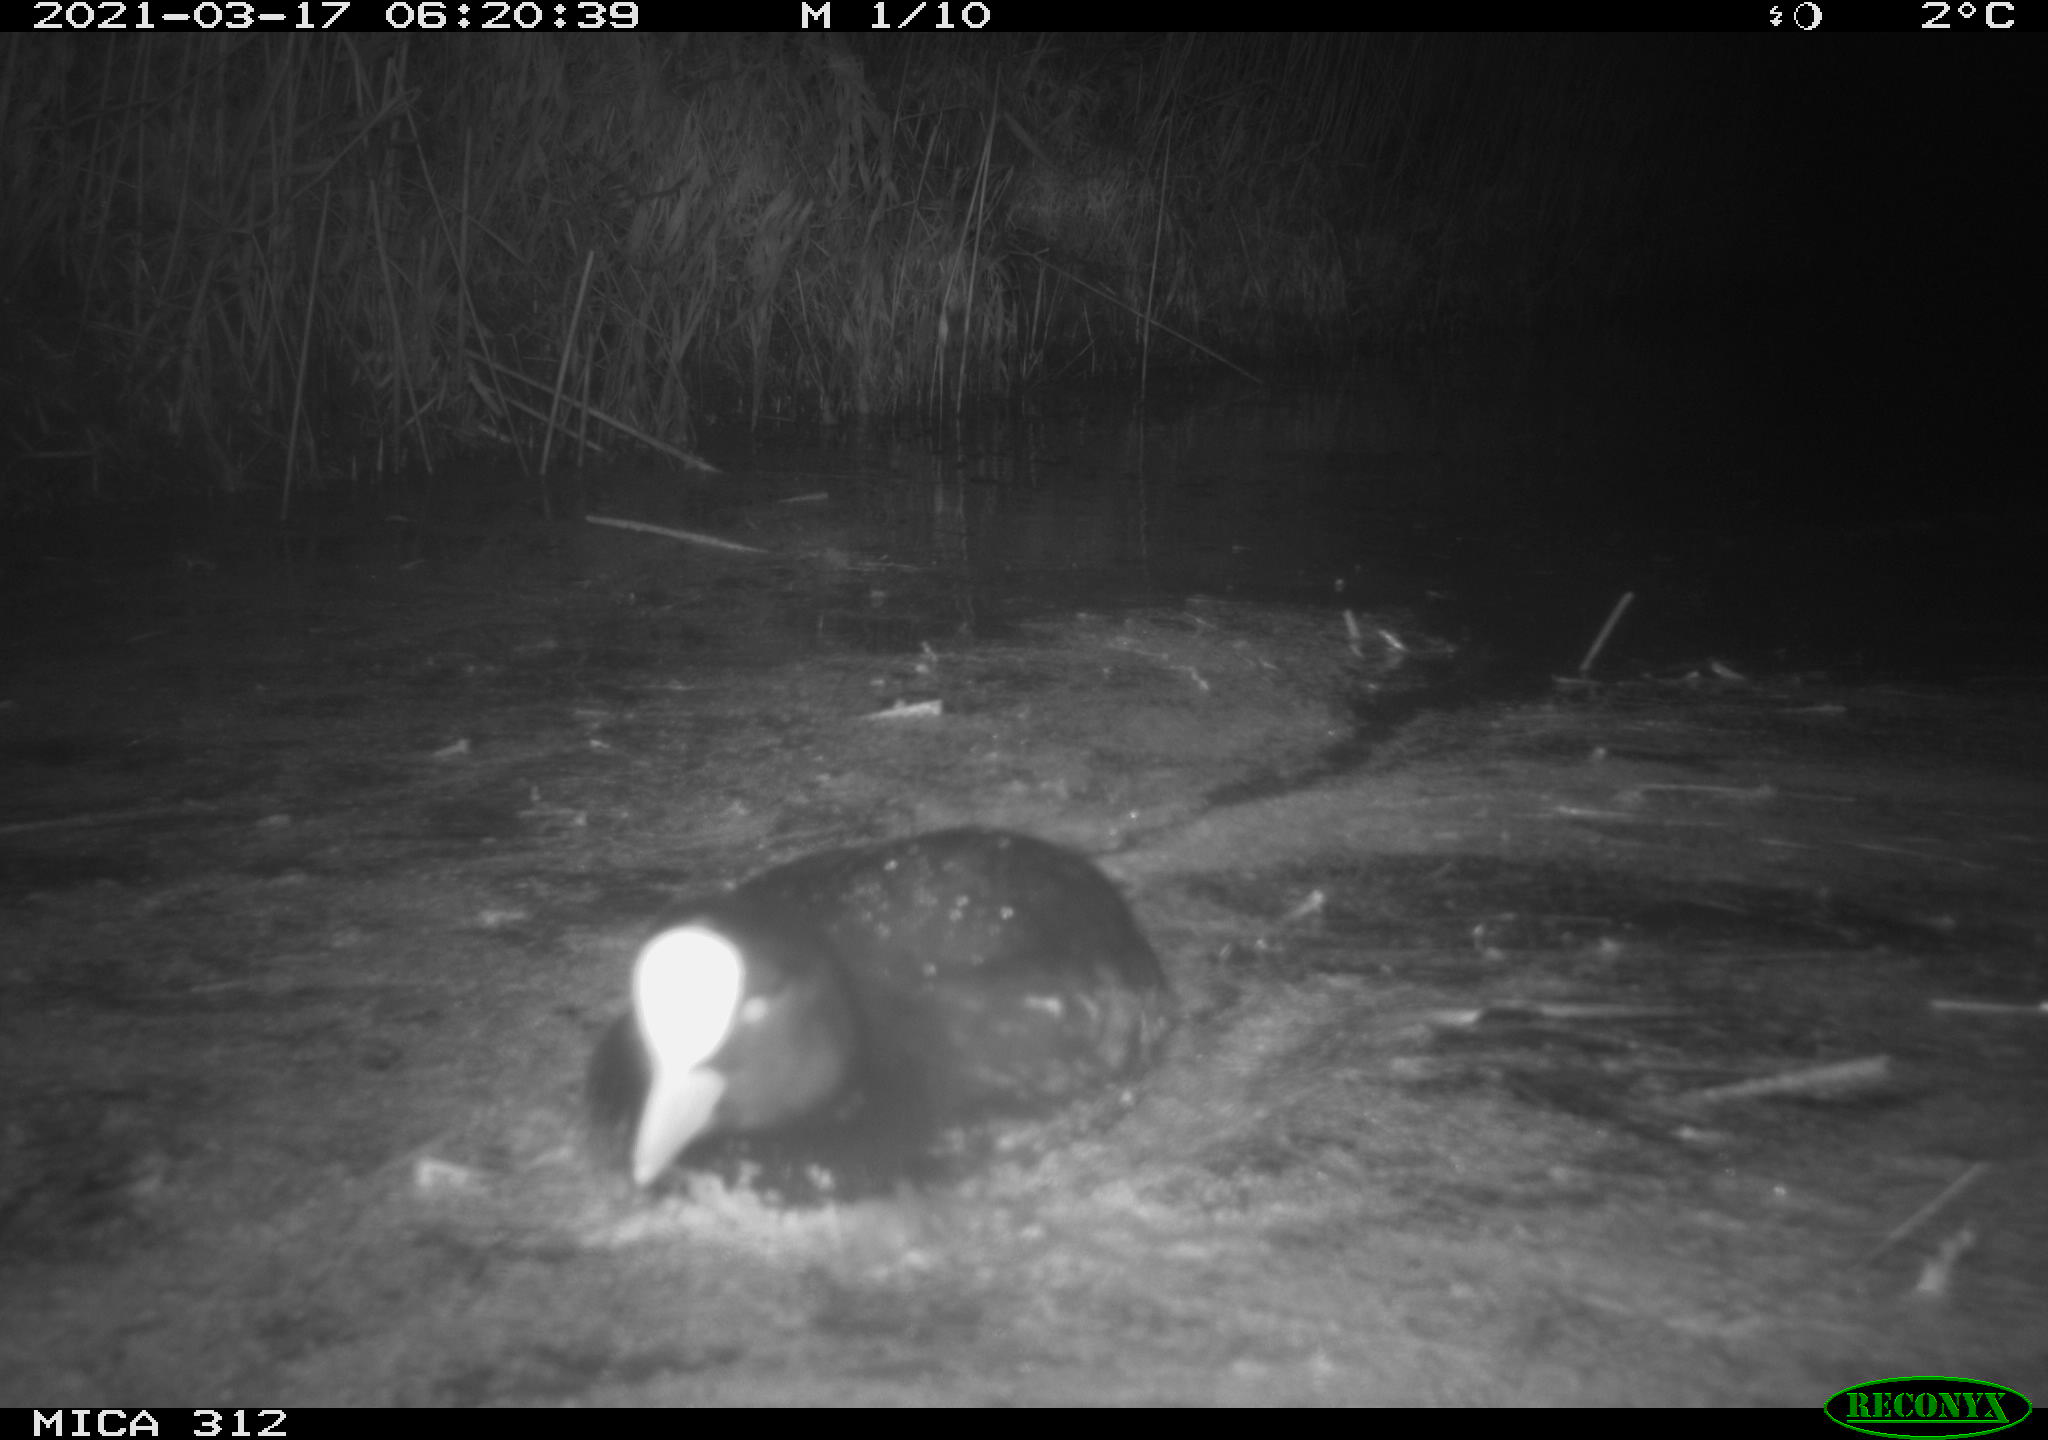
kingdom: Animalia
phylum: Chordata
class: Aves
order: Gruiformes
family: Rallidae
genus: Fulica
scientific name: Fulica atra
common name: Eurasian coot
